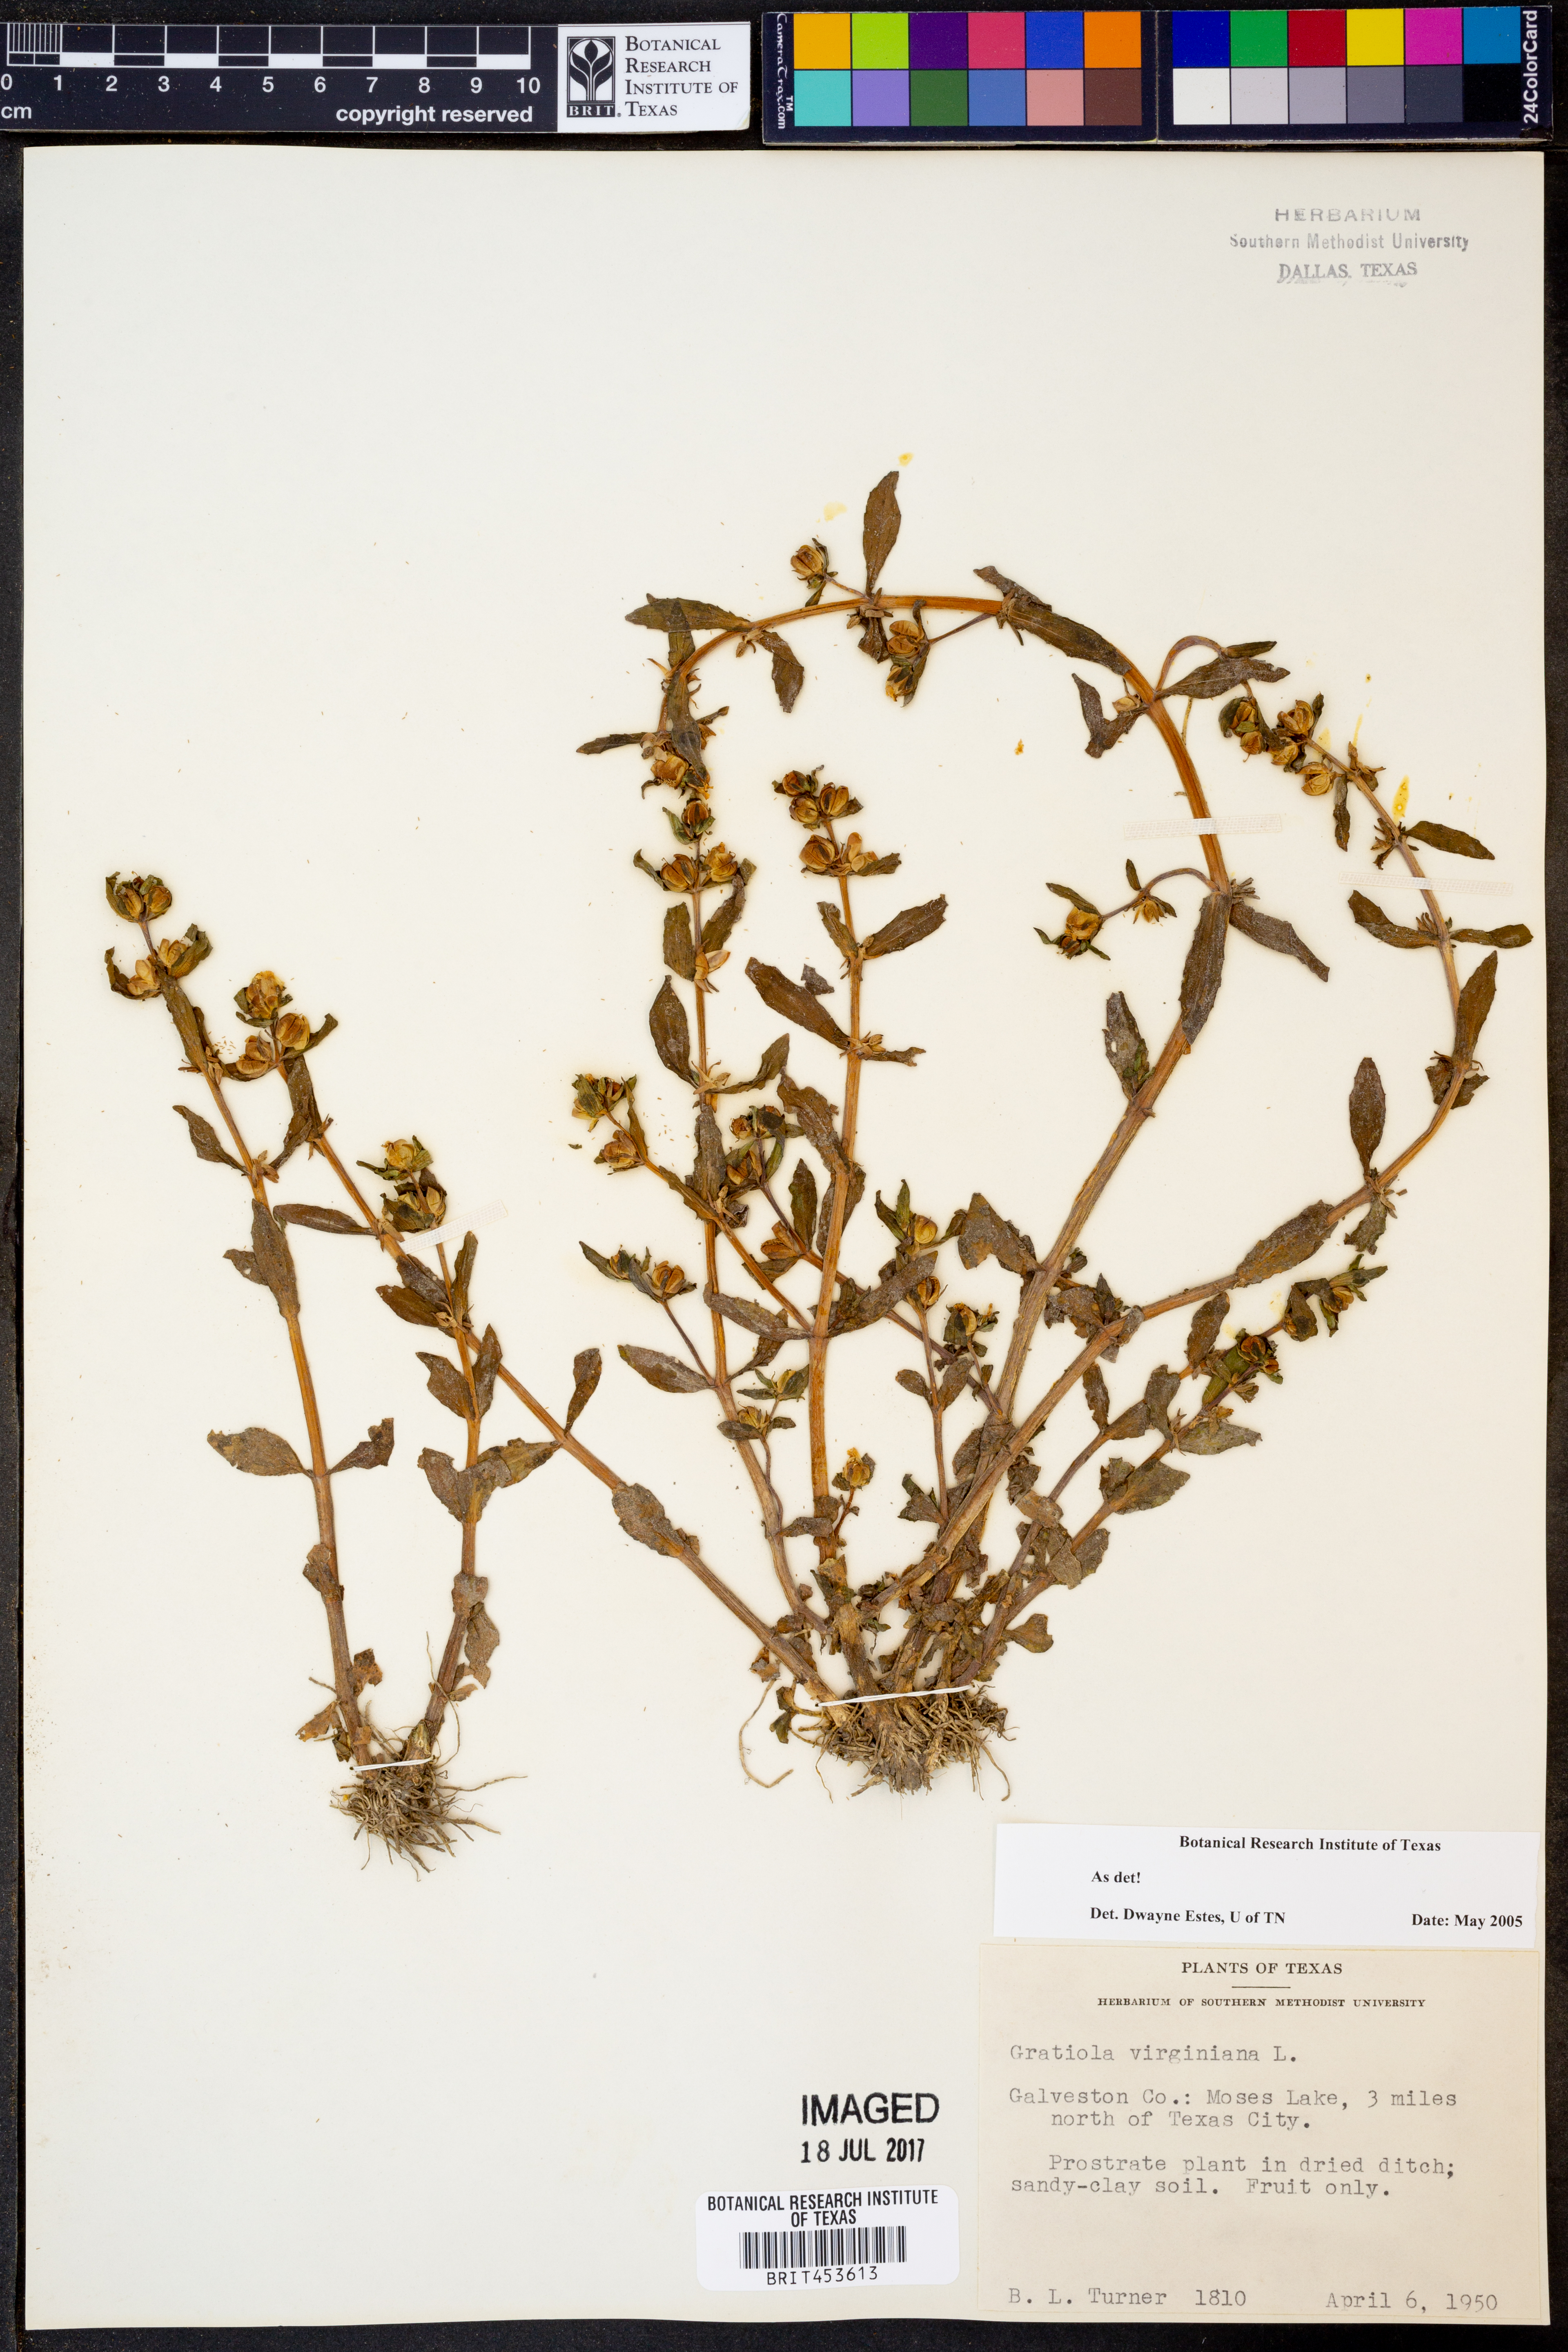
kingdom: Plantae
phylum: Tracheophyta
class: Magnoliopsida
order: Lamiales
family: Plantaginaceae
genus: Gratiola
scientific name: Gratiola virginiana
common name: Roundfruit hedgehyssop
